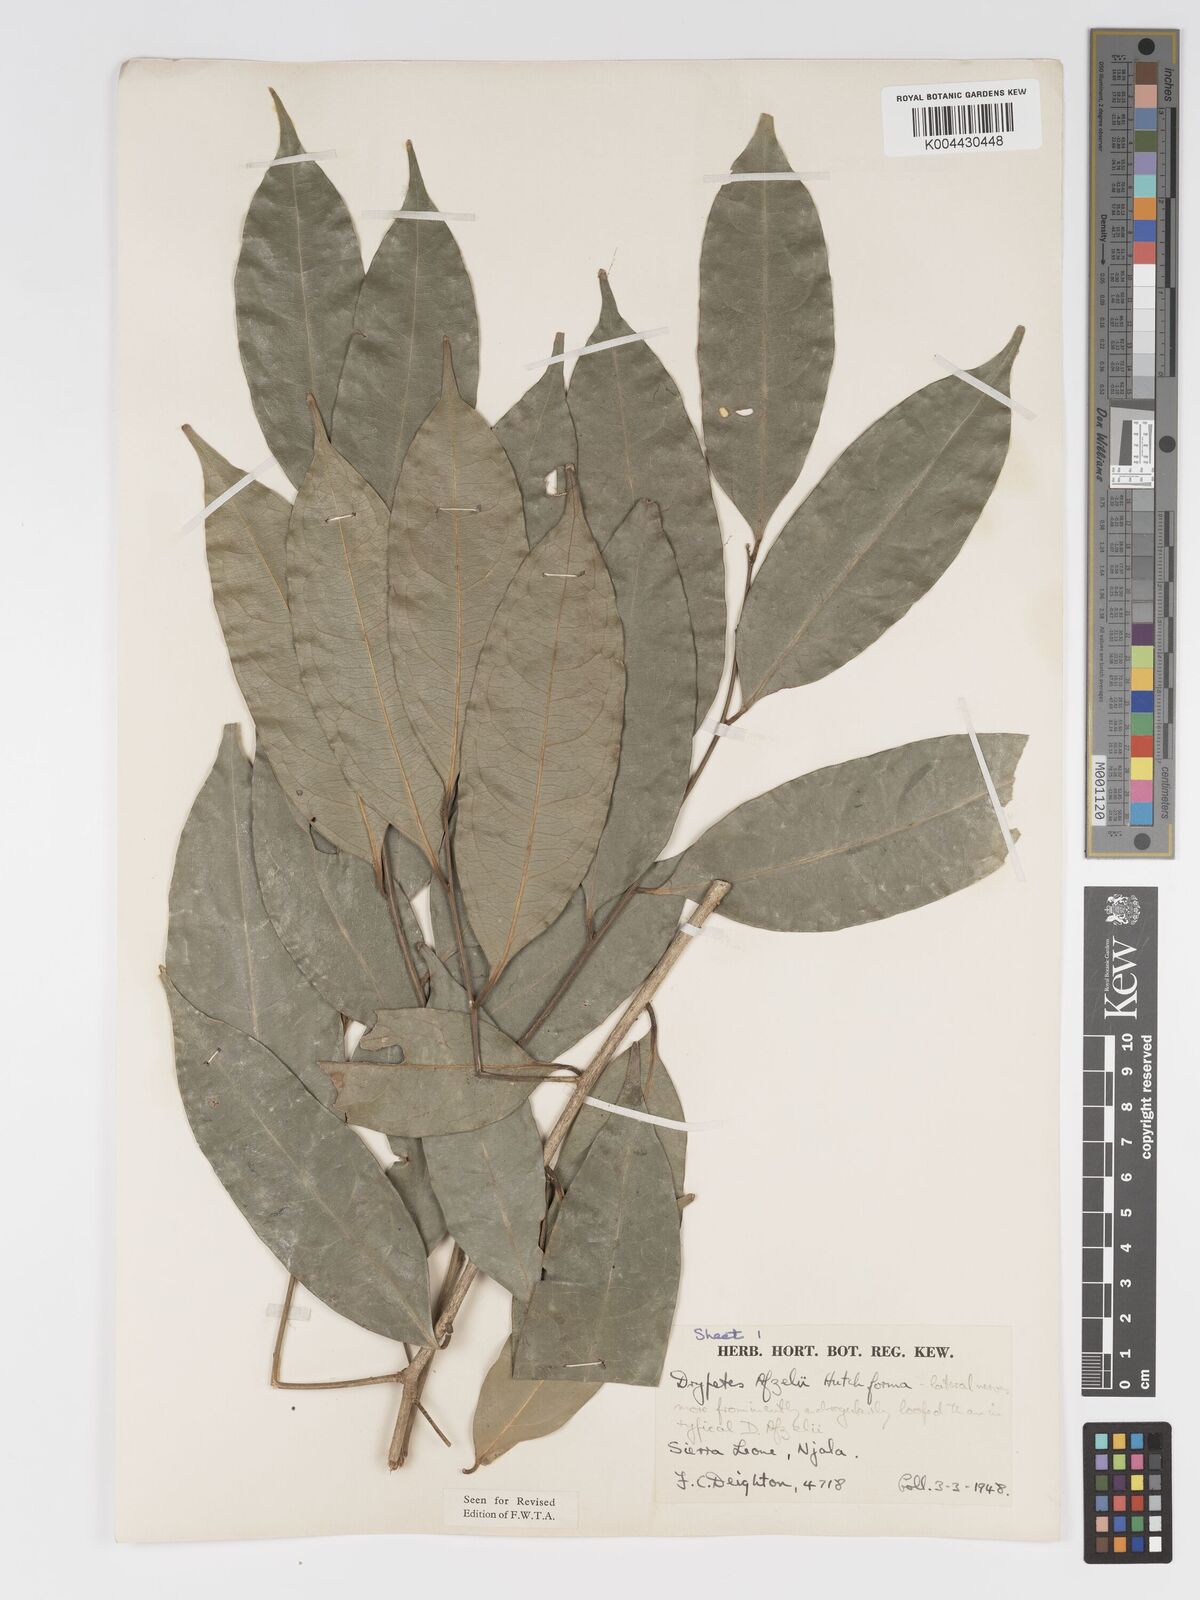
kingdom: Plantae
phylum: Tracheophyta
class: Magnoliopsida
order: Malpighiales
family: Putranjivaceae
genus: Drypetes
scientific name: Drypetes afzelii
